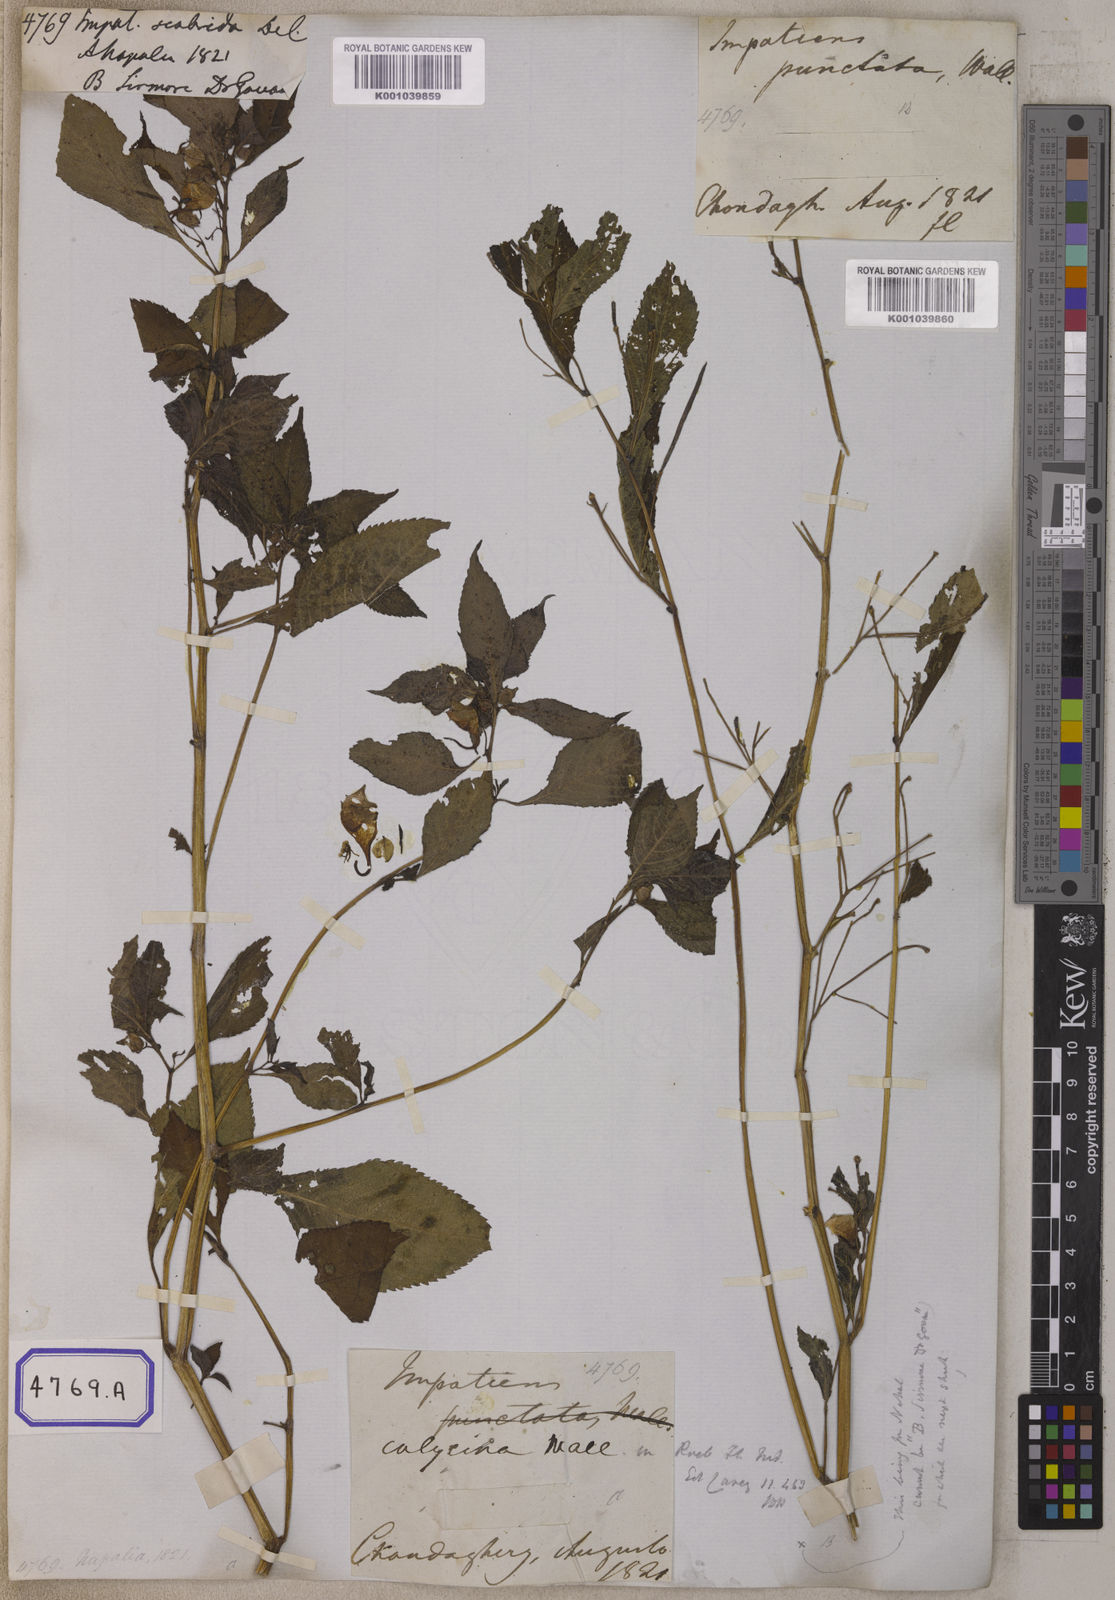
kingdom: Plantae
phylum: Tracheophyta
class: Magnoliopsida
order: Ericales
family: Balsaminaceae
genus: Impatiens
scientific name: Impatiens scabrida
